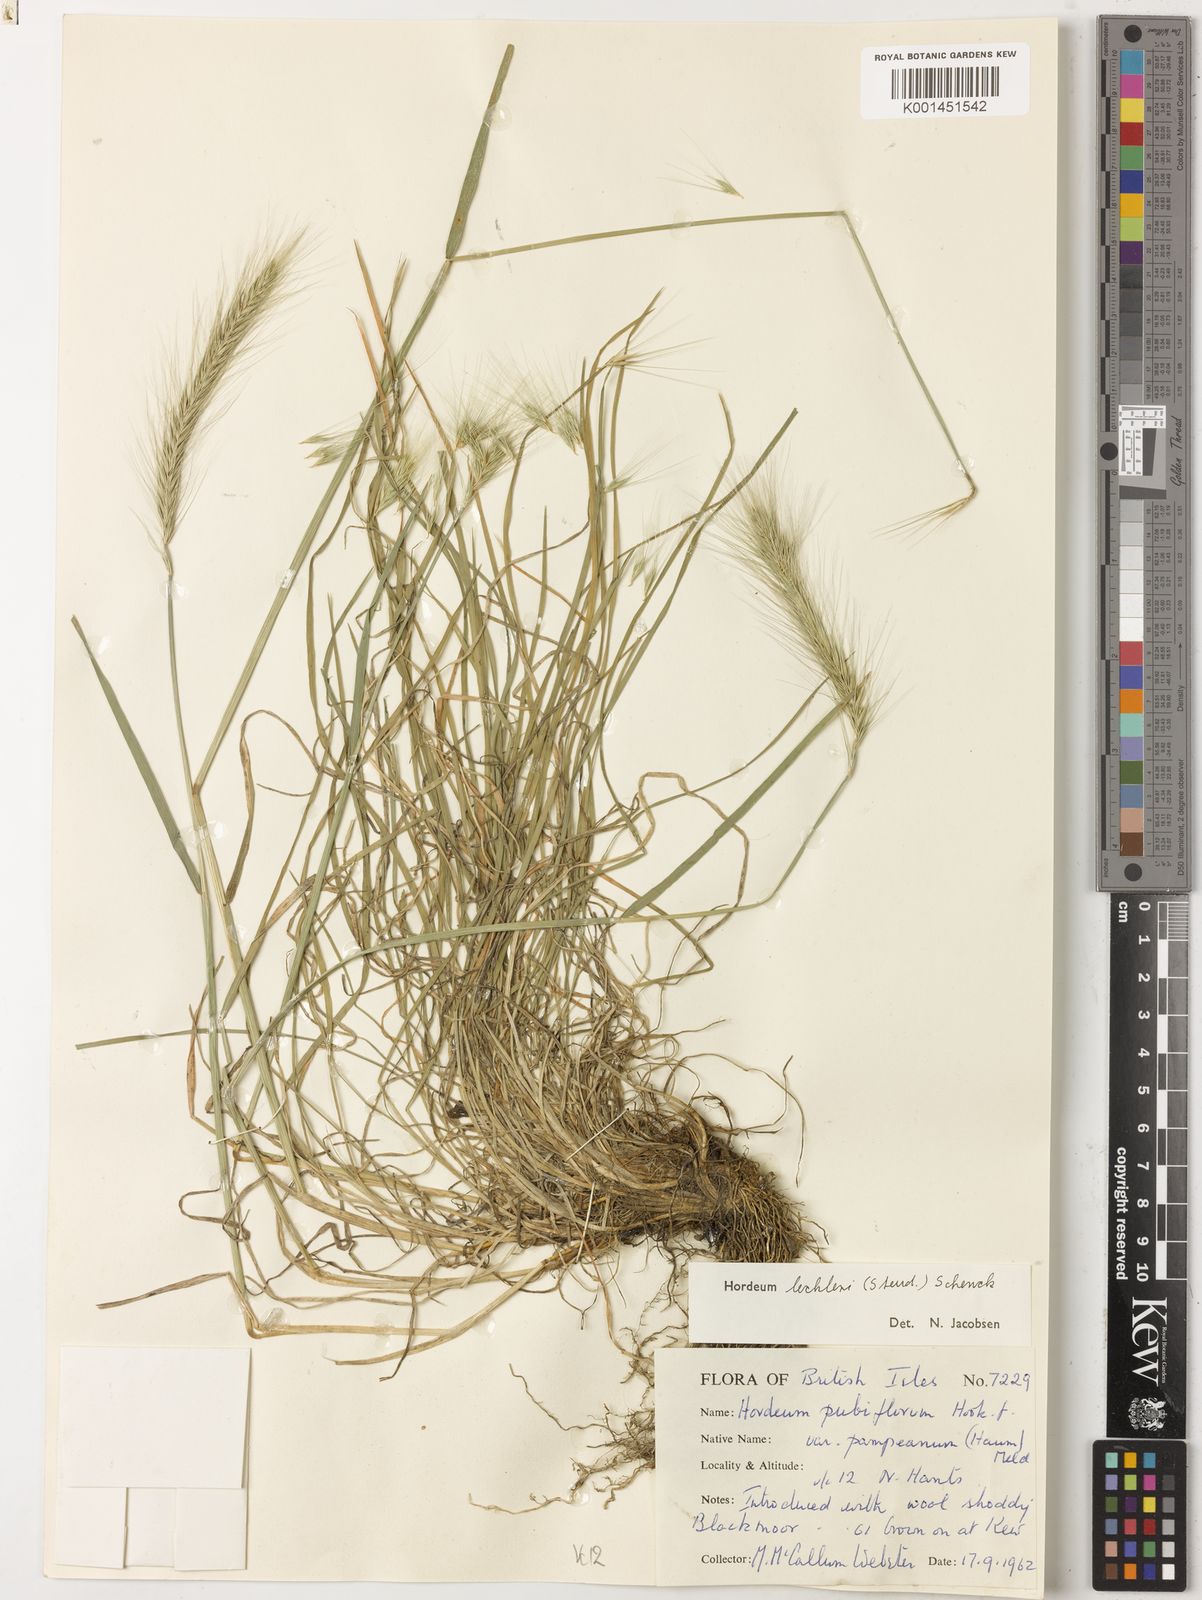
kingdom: Plantae
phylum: Tracheophyta
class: Liliopsida
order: Poales
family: Poaceae
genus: Hordeum
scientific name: Hordeum lechleri
